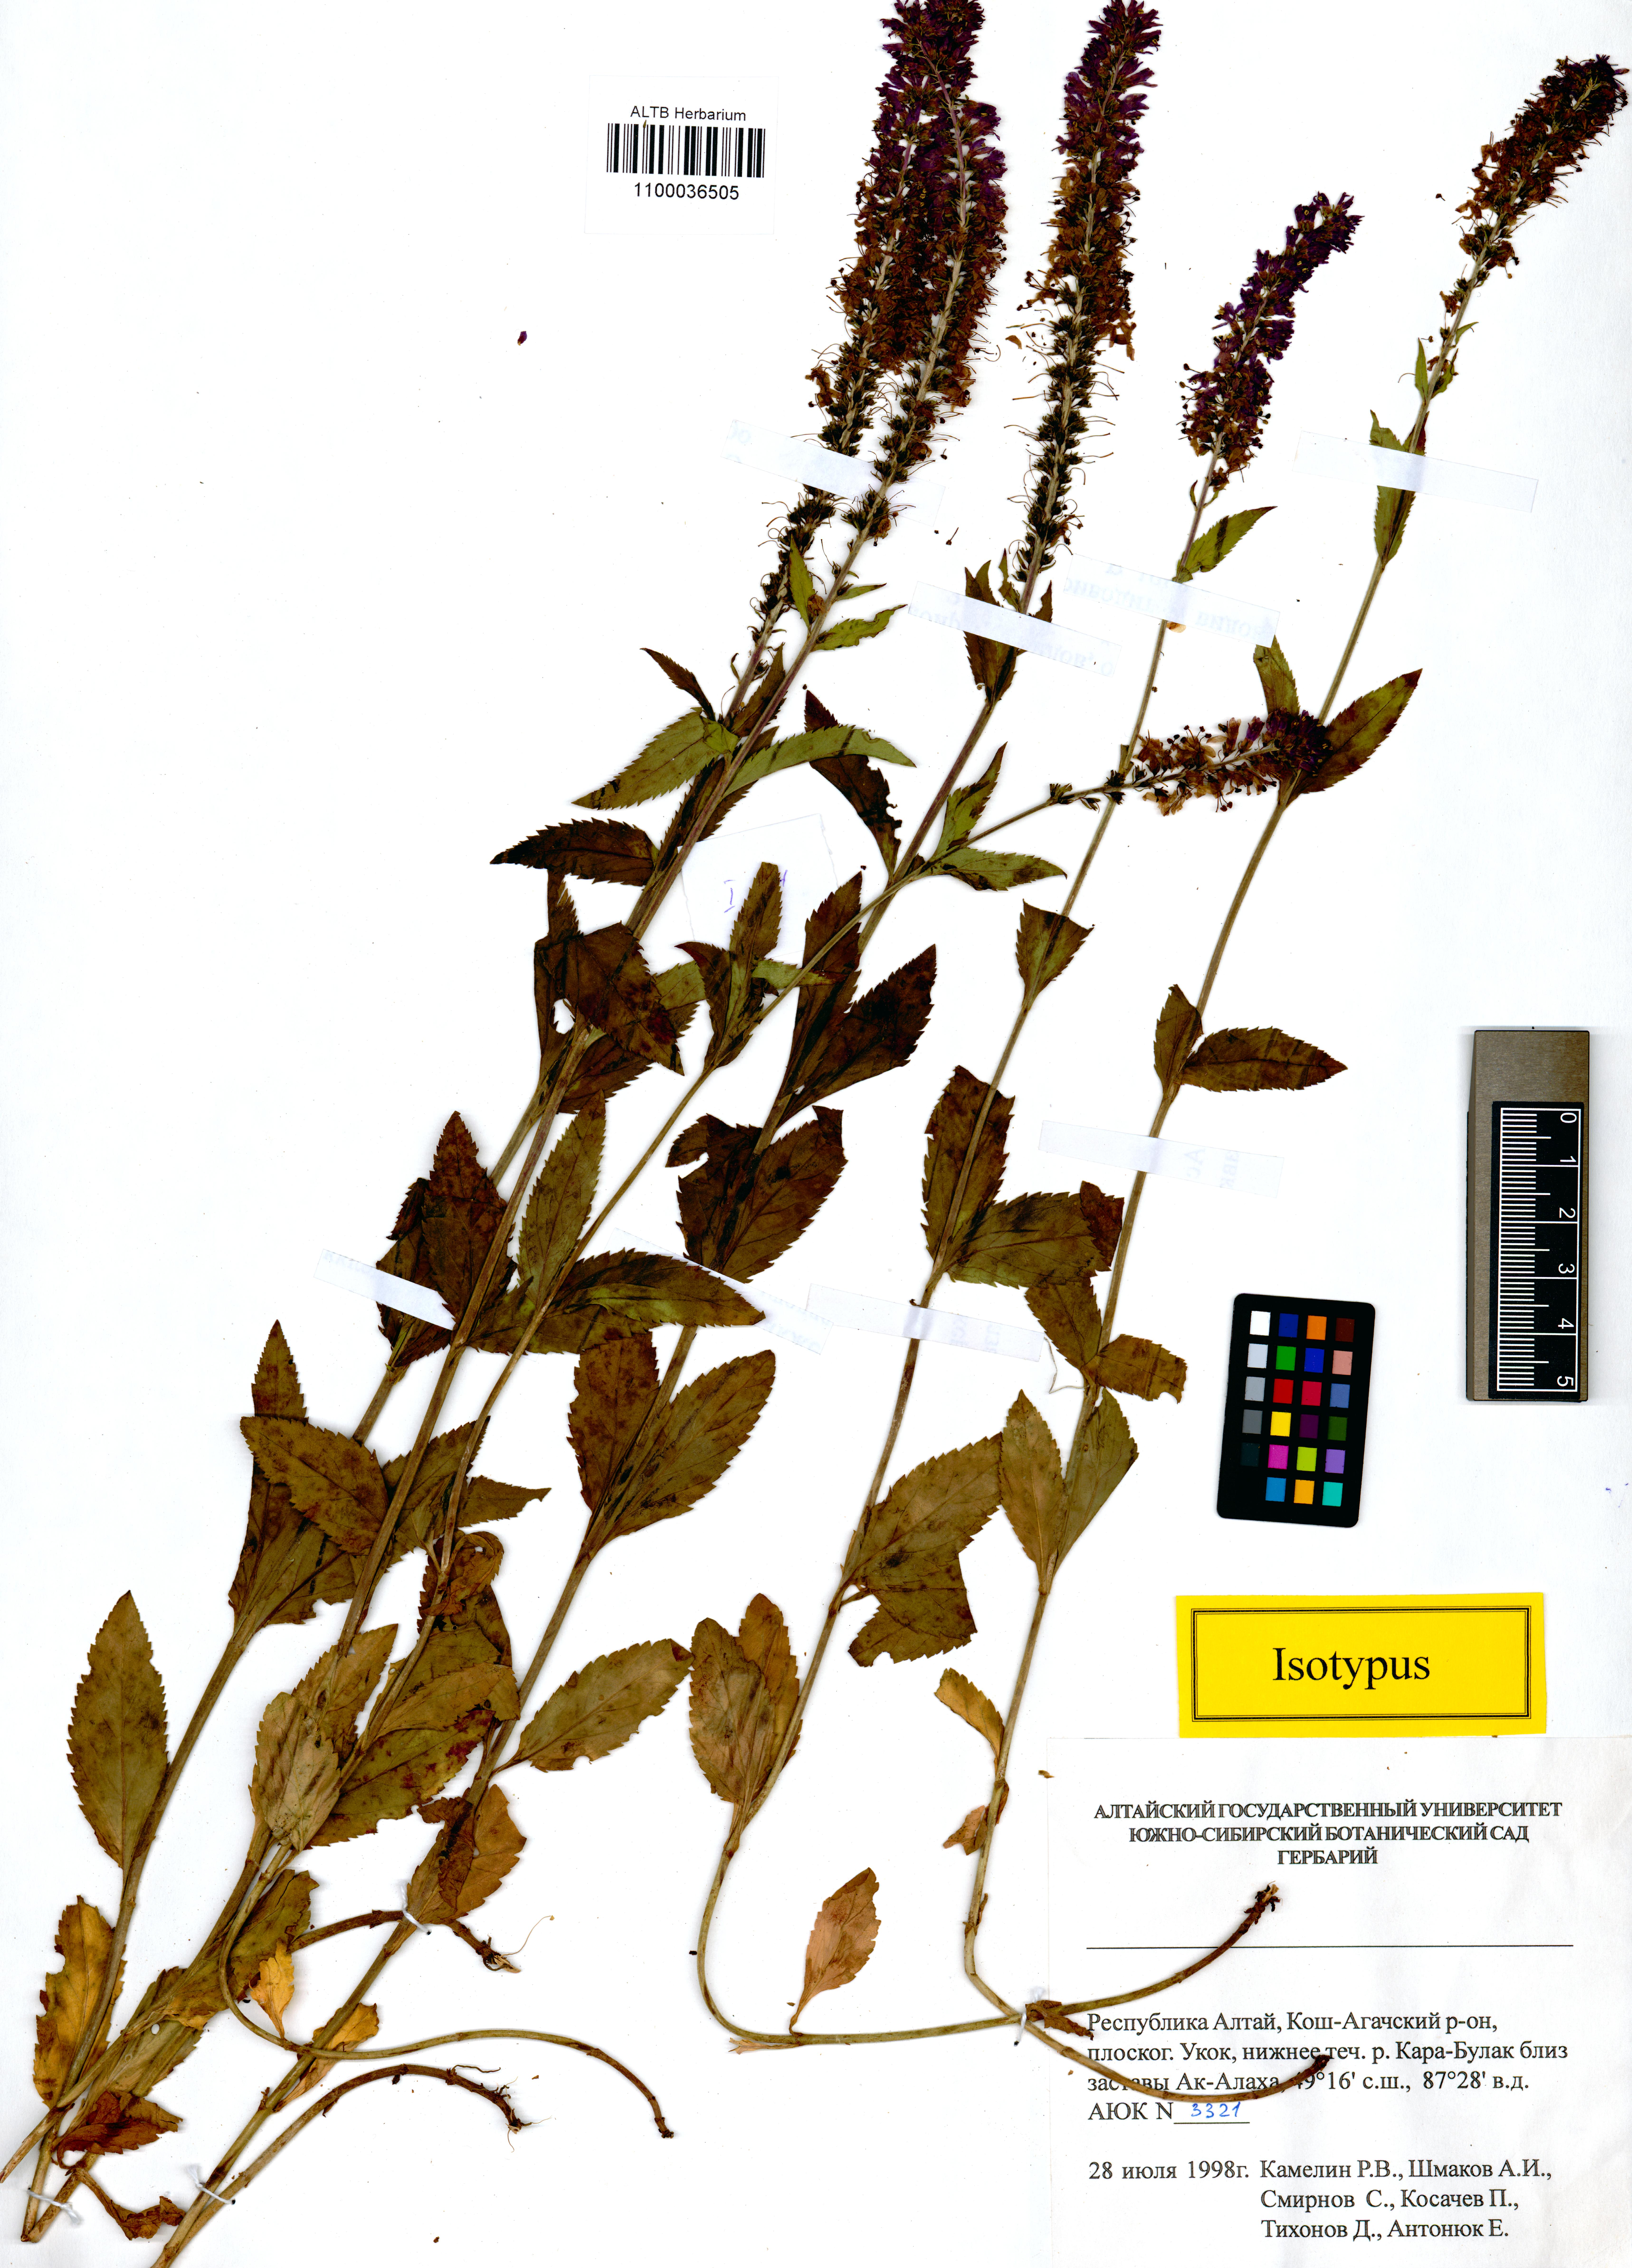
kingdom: Plantae
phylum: Tracheophyta
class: Magnoliopsida
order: Lamiales
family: Plantaginaceae
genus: Veronica
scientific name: Veronica schmakovii
